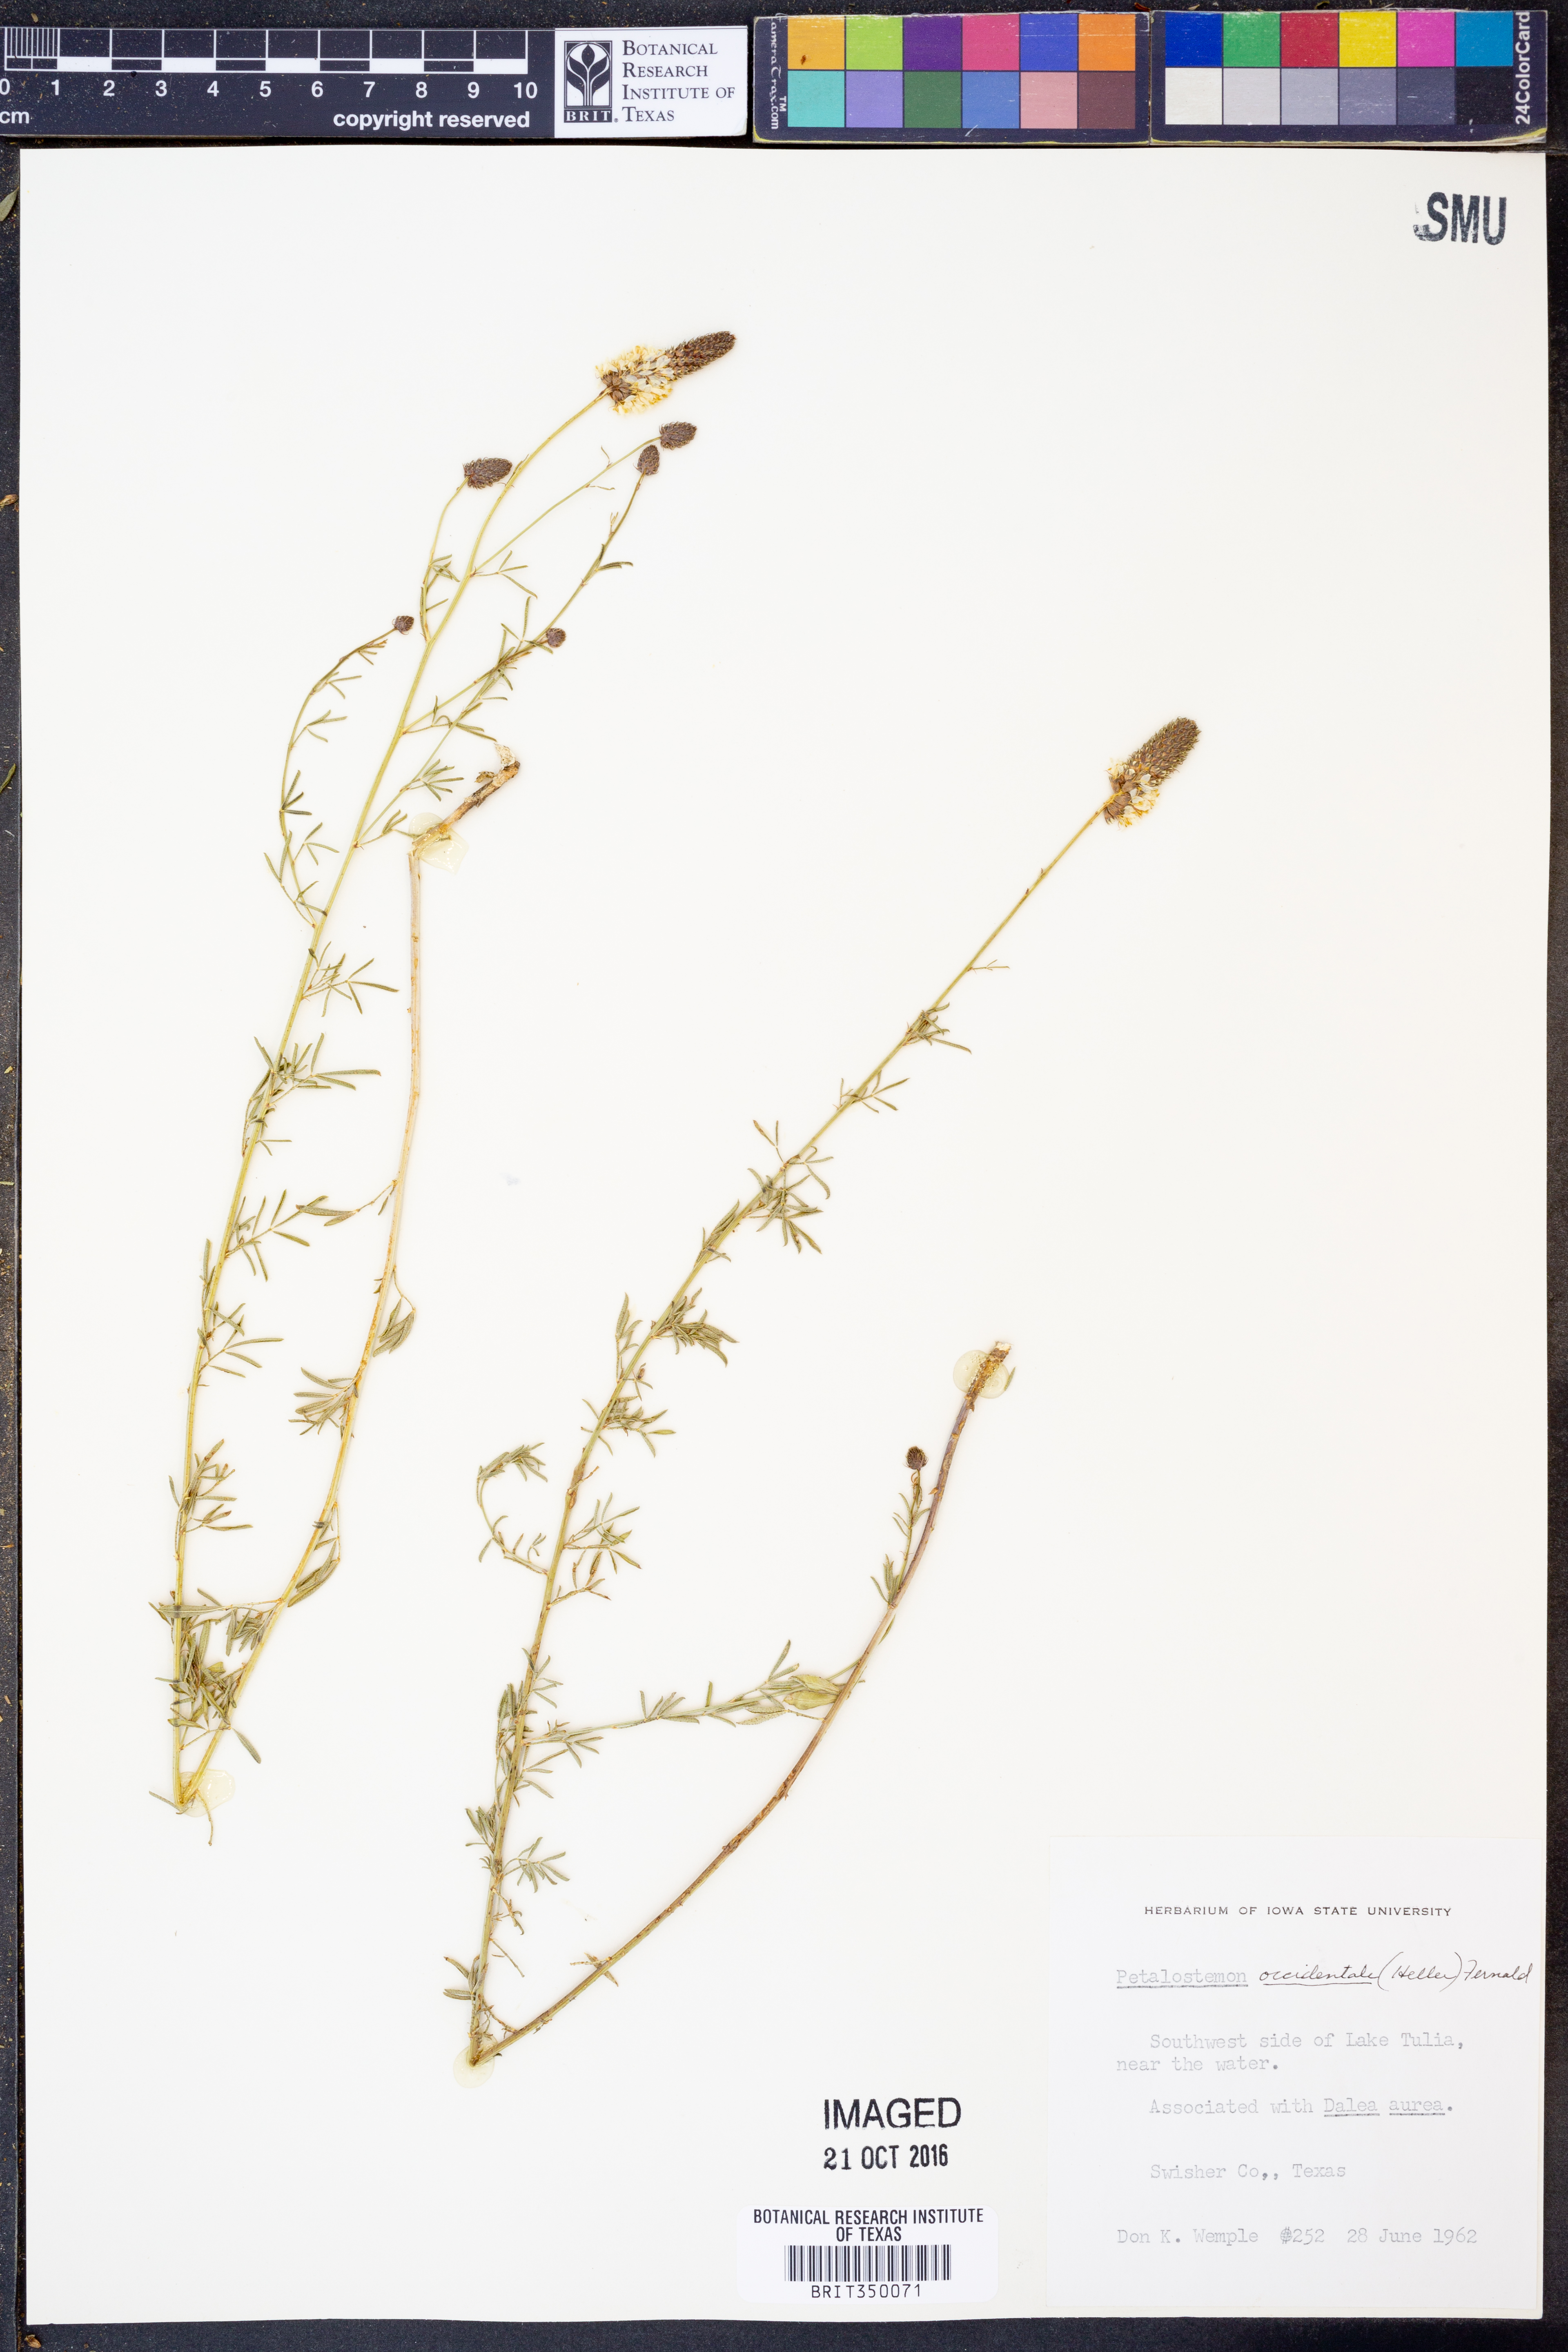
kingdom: Plantae
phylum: Tracheophyta
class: Magnoliopsida
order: Fabales
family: Fabaceae
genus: Dalea
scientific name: Dalea candida
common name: White prairie-clover
